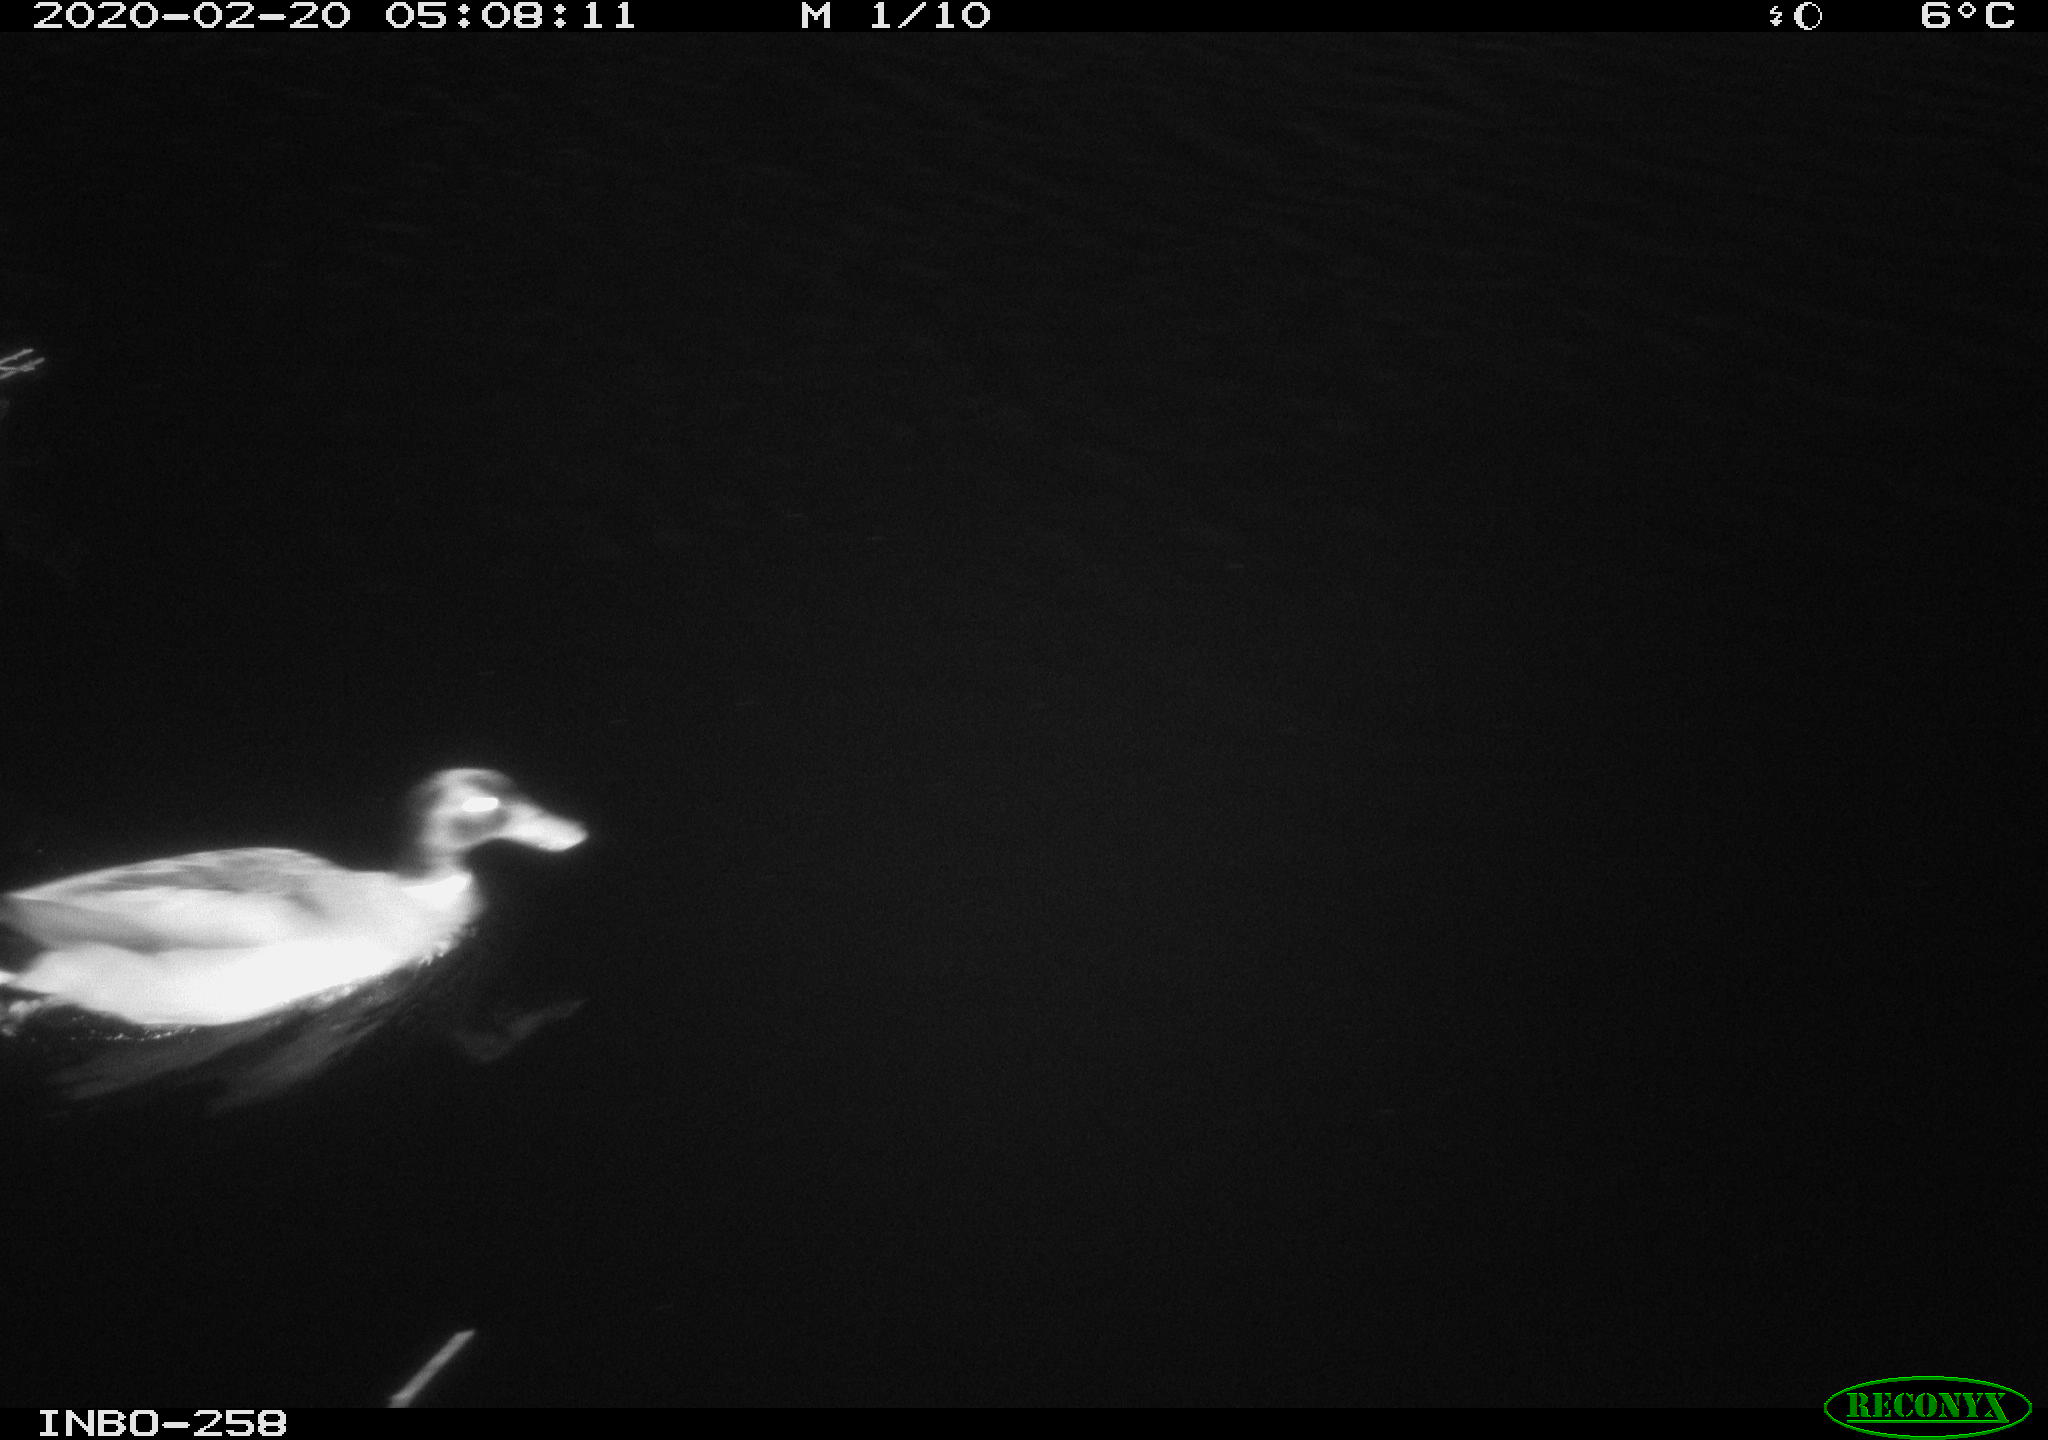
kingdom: Animalia
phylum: Chordata
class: Aves
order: Anseriformes
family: Anatidae
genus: Anas
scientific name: Anas platyrhynchos
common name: Mallard
